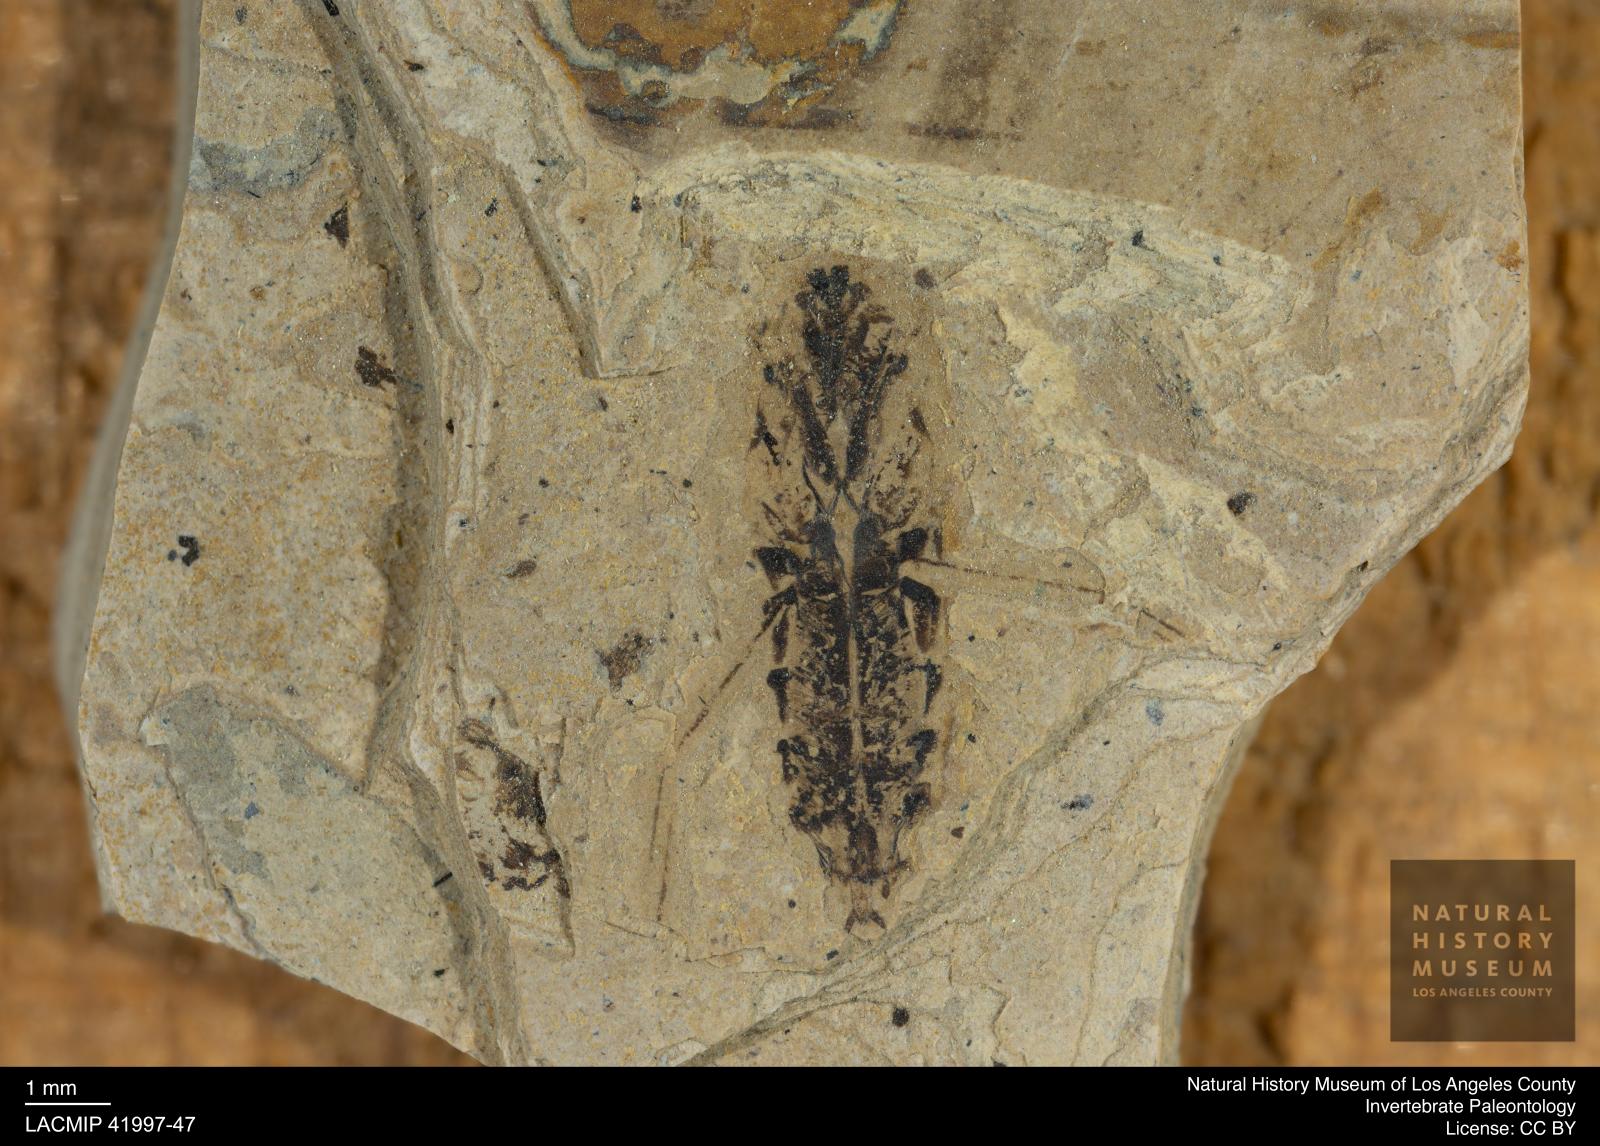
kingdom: Animalia
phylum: Arthropoda
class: Insecta
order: Hemiptera
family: Notonectidae
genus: Anisops
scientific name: Anisops Notonecta deichmuelleri
